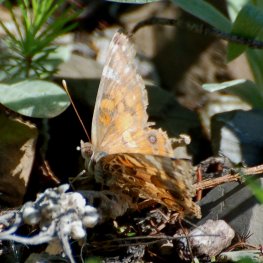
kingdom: Animalia
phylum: Arthropoda
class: Insecta
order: Lepidoptera
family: Nymphalidae
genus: Vanessa
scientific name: Vanessa virginiensis
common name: American Lady
